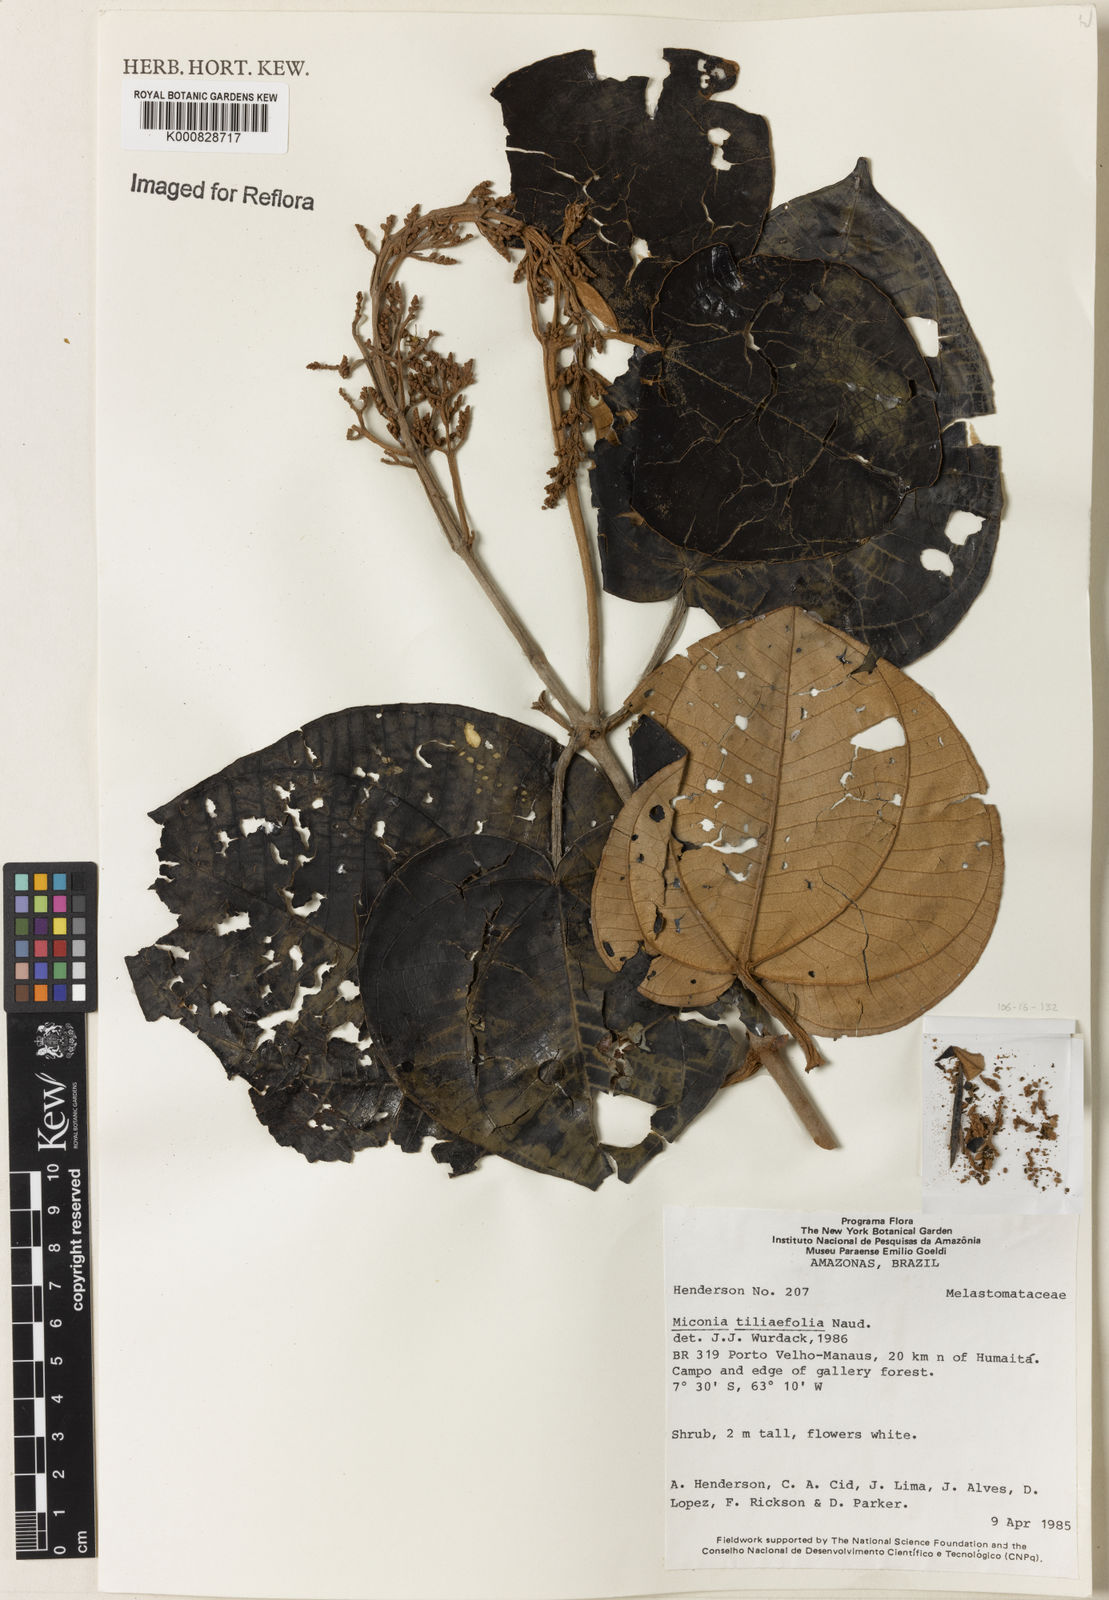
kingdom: Plantae
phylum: Tracheophyta
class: Magnoliopsida
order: Myrtales
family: Melastomataceae
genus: Miconia
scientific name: Miconia
